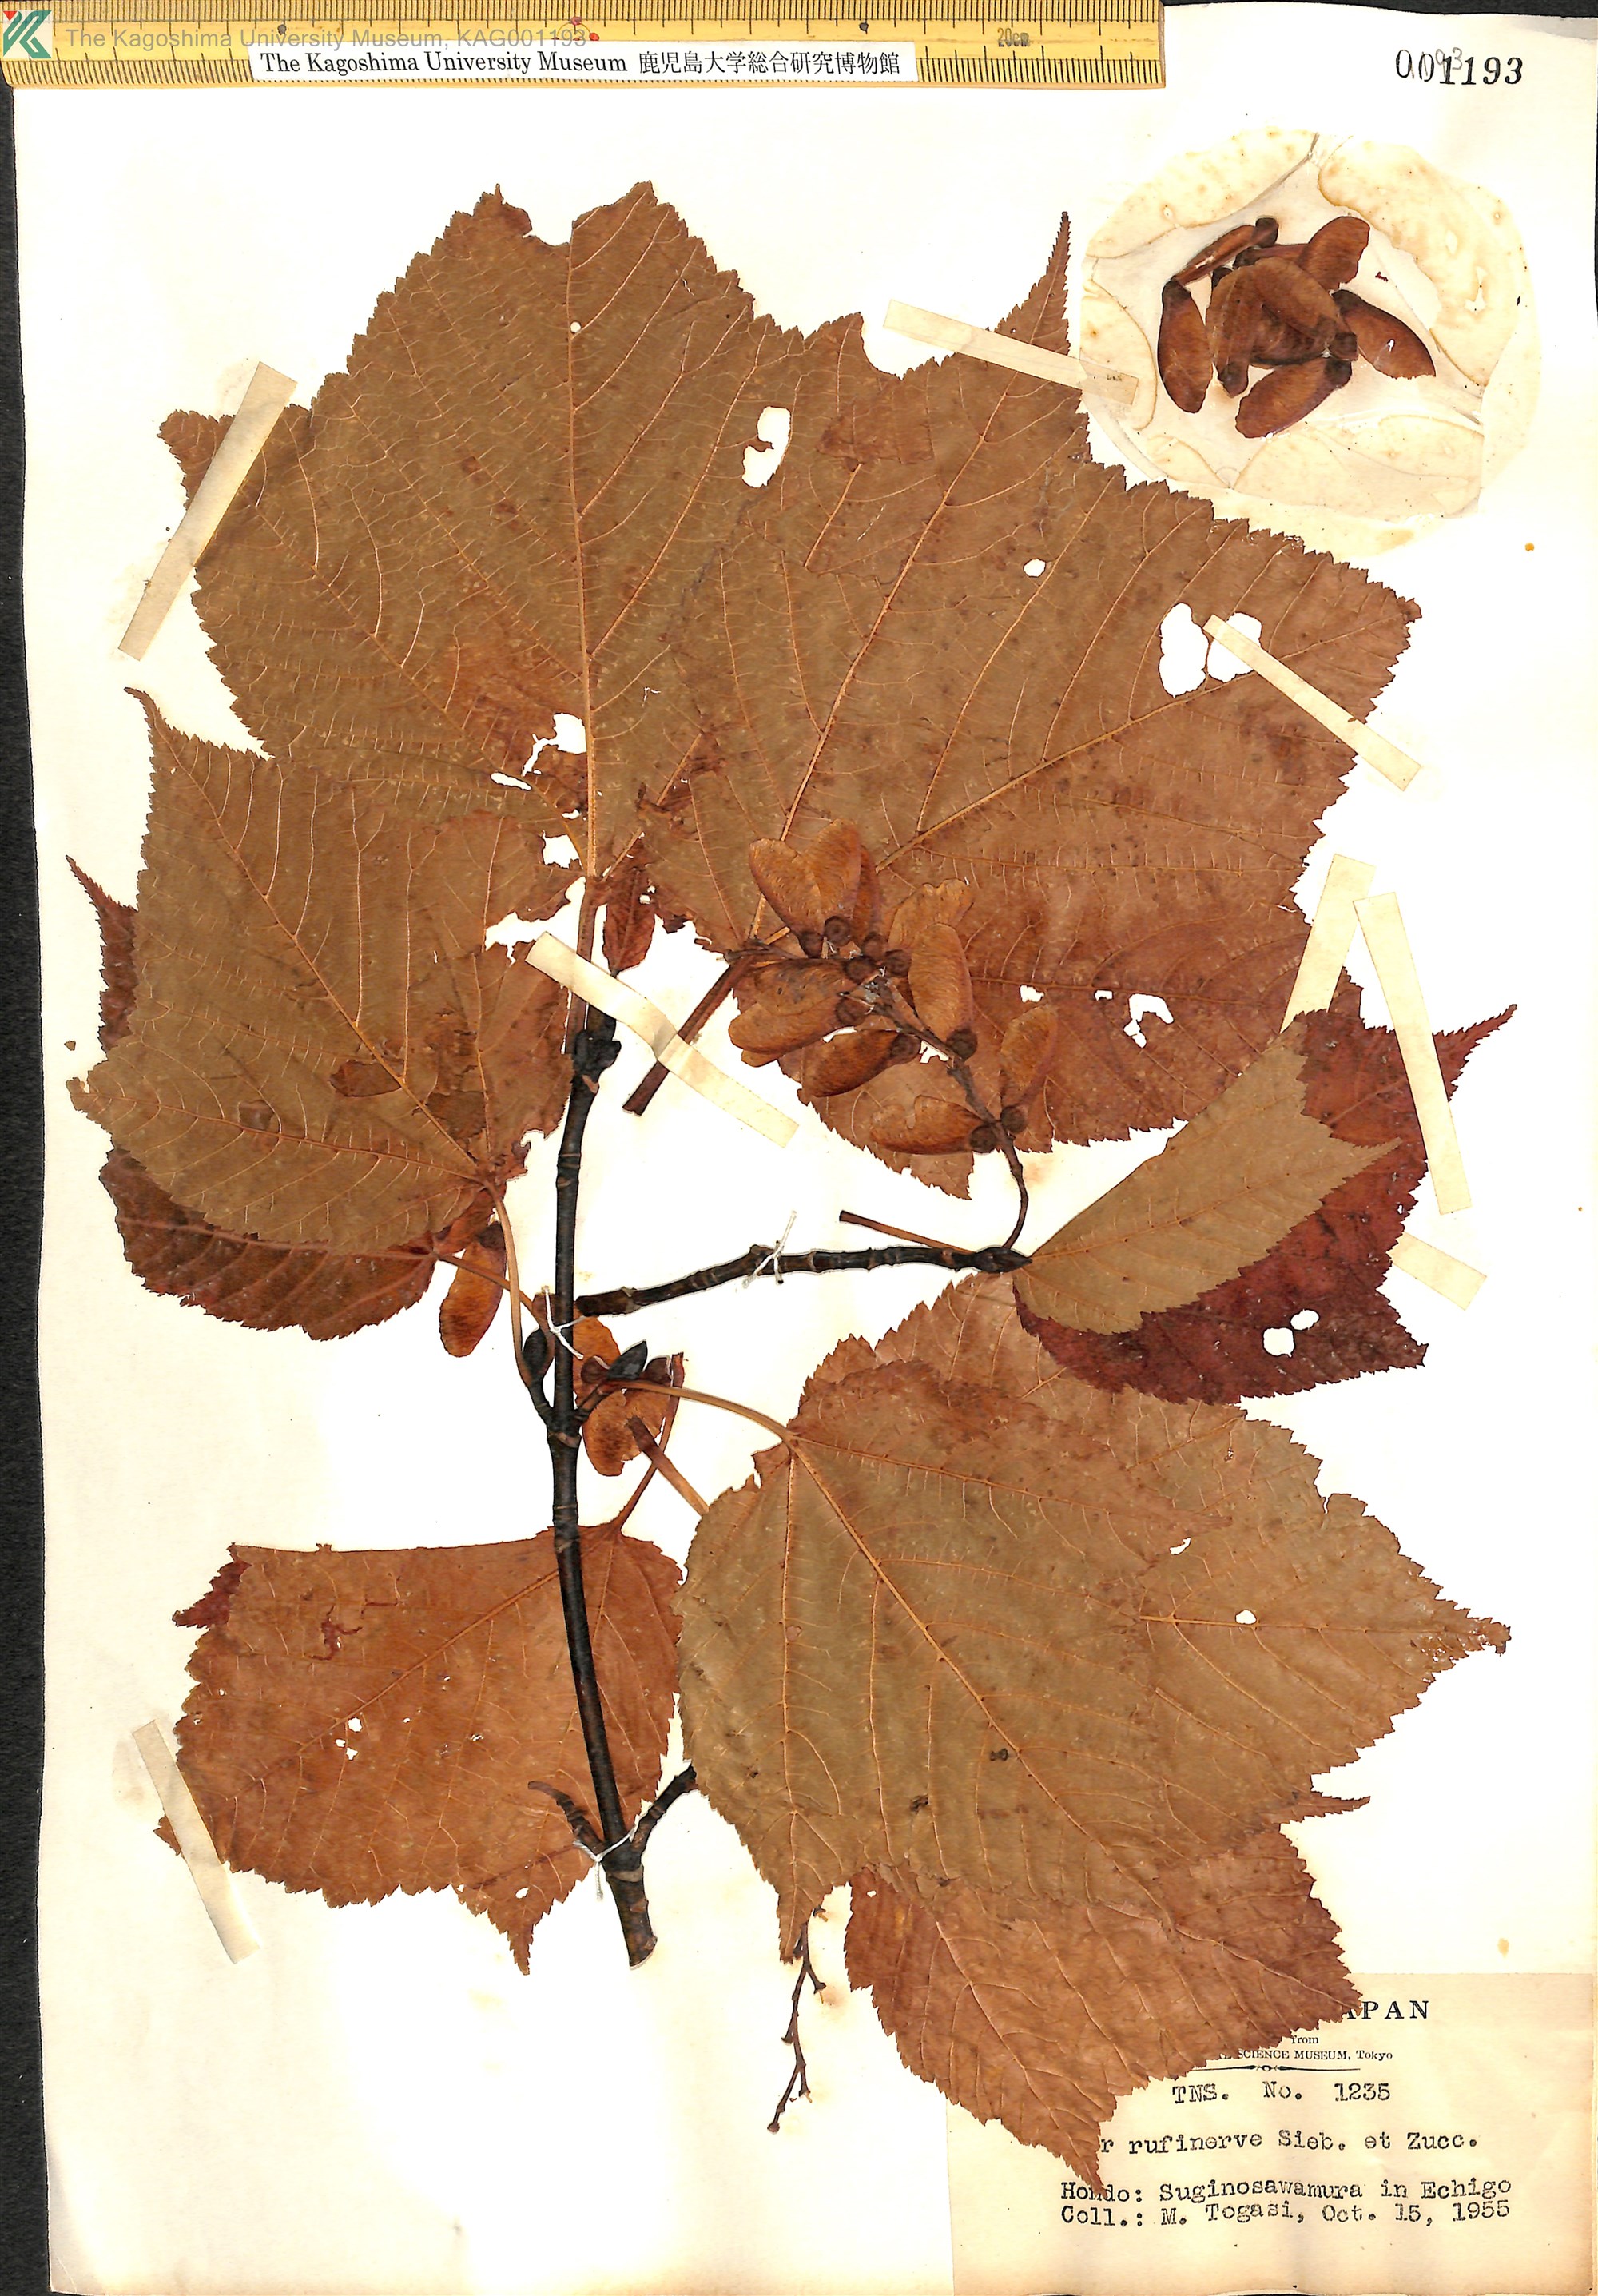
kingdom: Plantae
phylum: Tracheophyta
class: Magnoliopsida
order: Sapindales
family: Sapindaceae
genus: Acer
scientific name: Acer rufinerve
